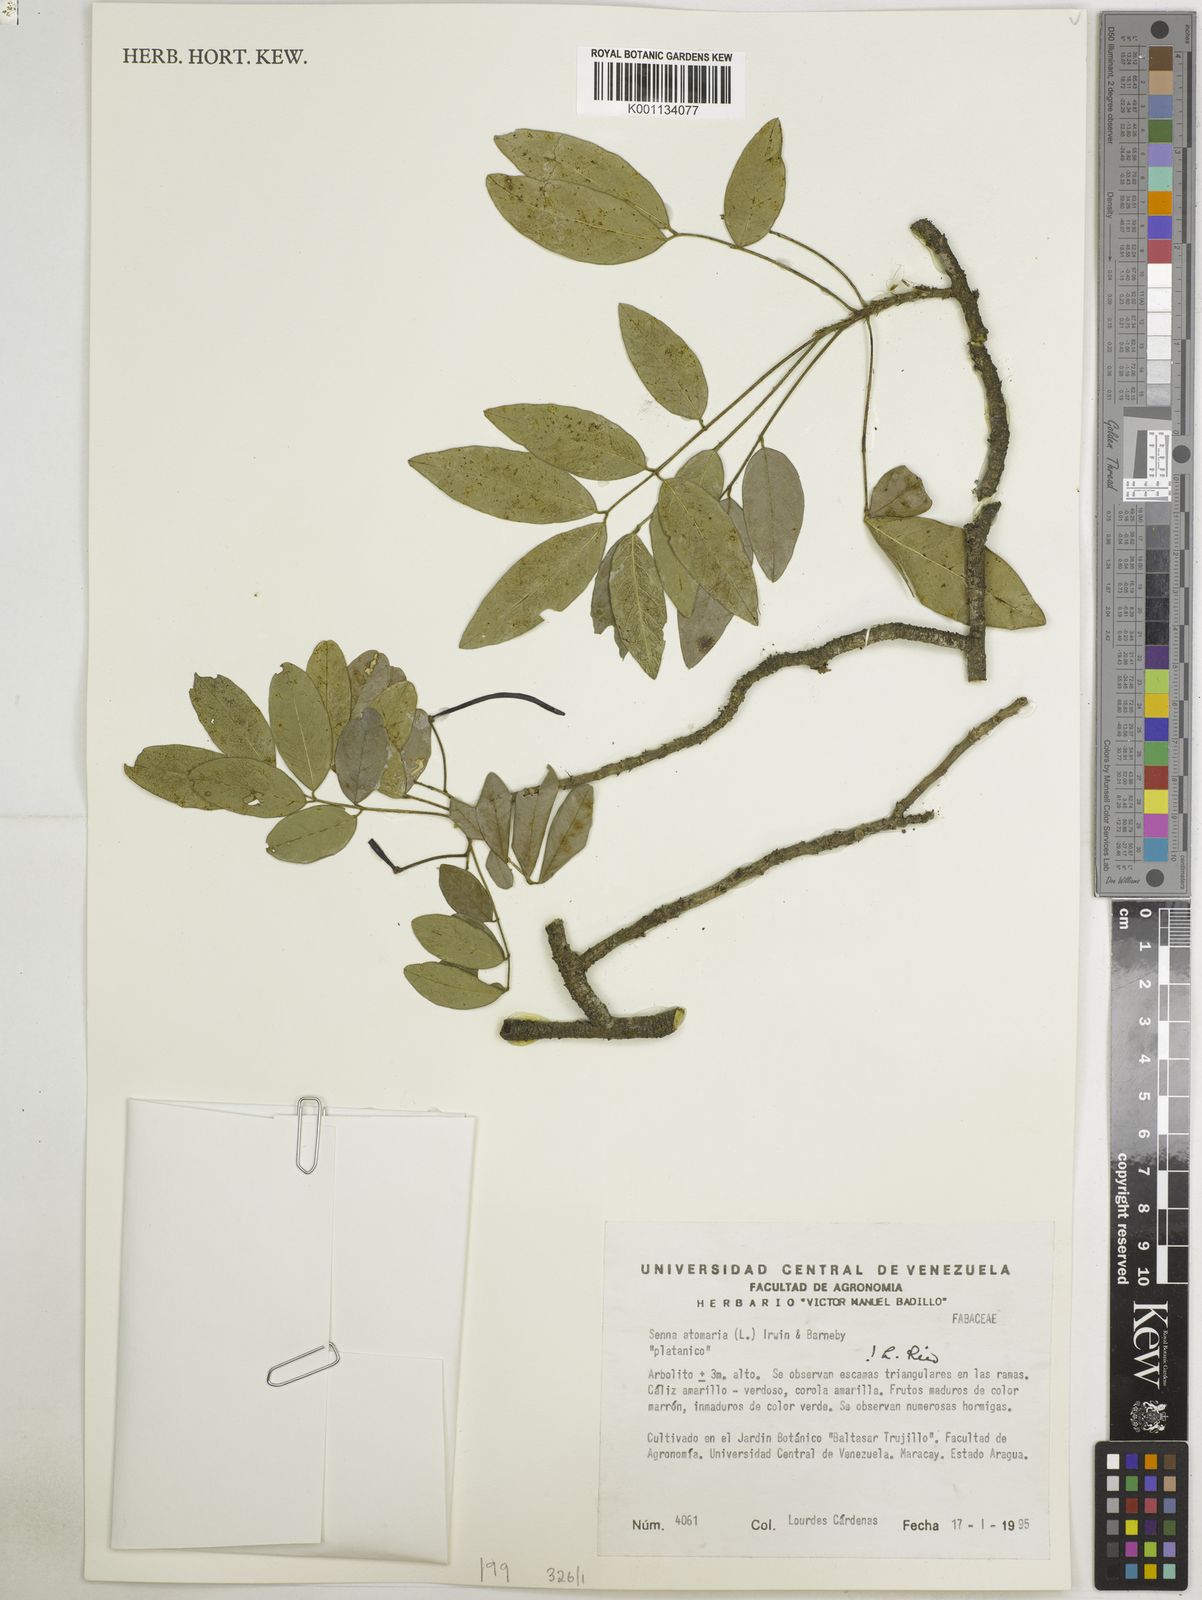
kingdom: Plantae
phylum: Tracheophyta
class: Magnoliopsida
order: Fabales
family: Fabaceae
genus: Senna
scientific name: Senna atomaria
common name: Flor de san jose
